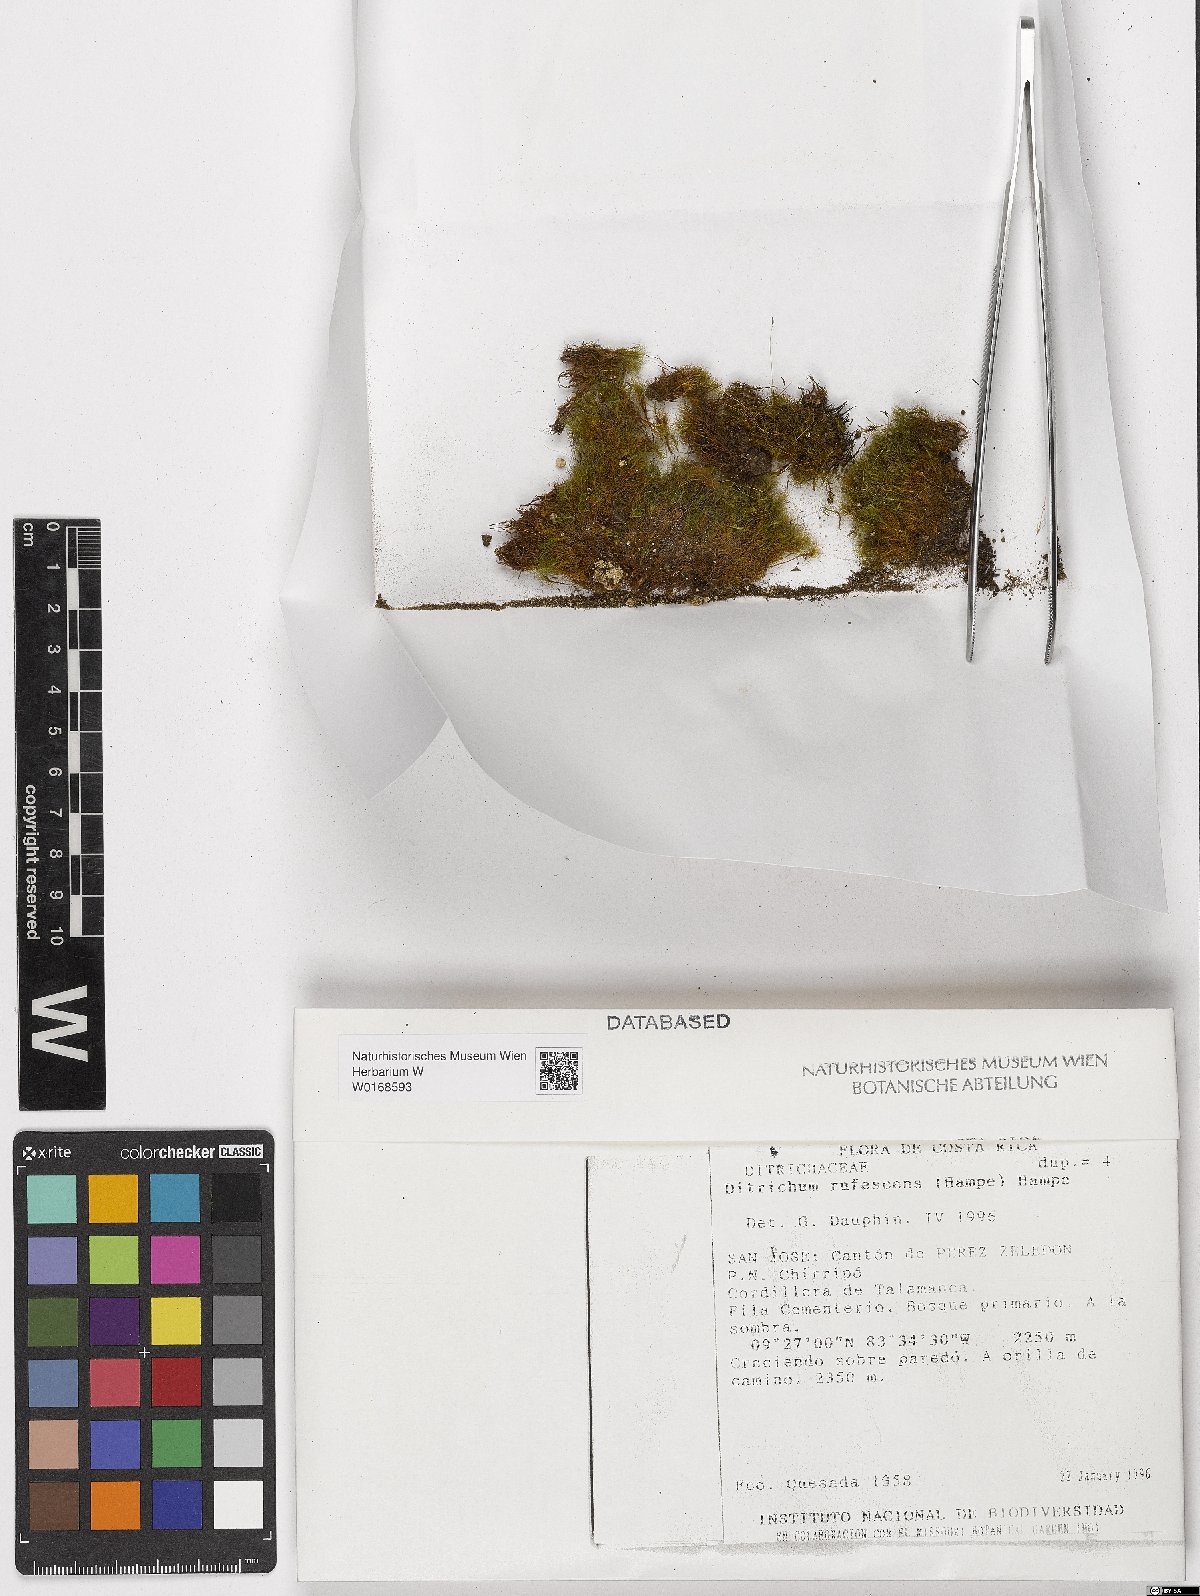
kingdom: Plantae
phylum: Bryophyta
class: Bryopsida
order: Dicranales
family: Ditrichaceae
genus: Ditrichum
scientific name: Ditrichum difficile
